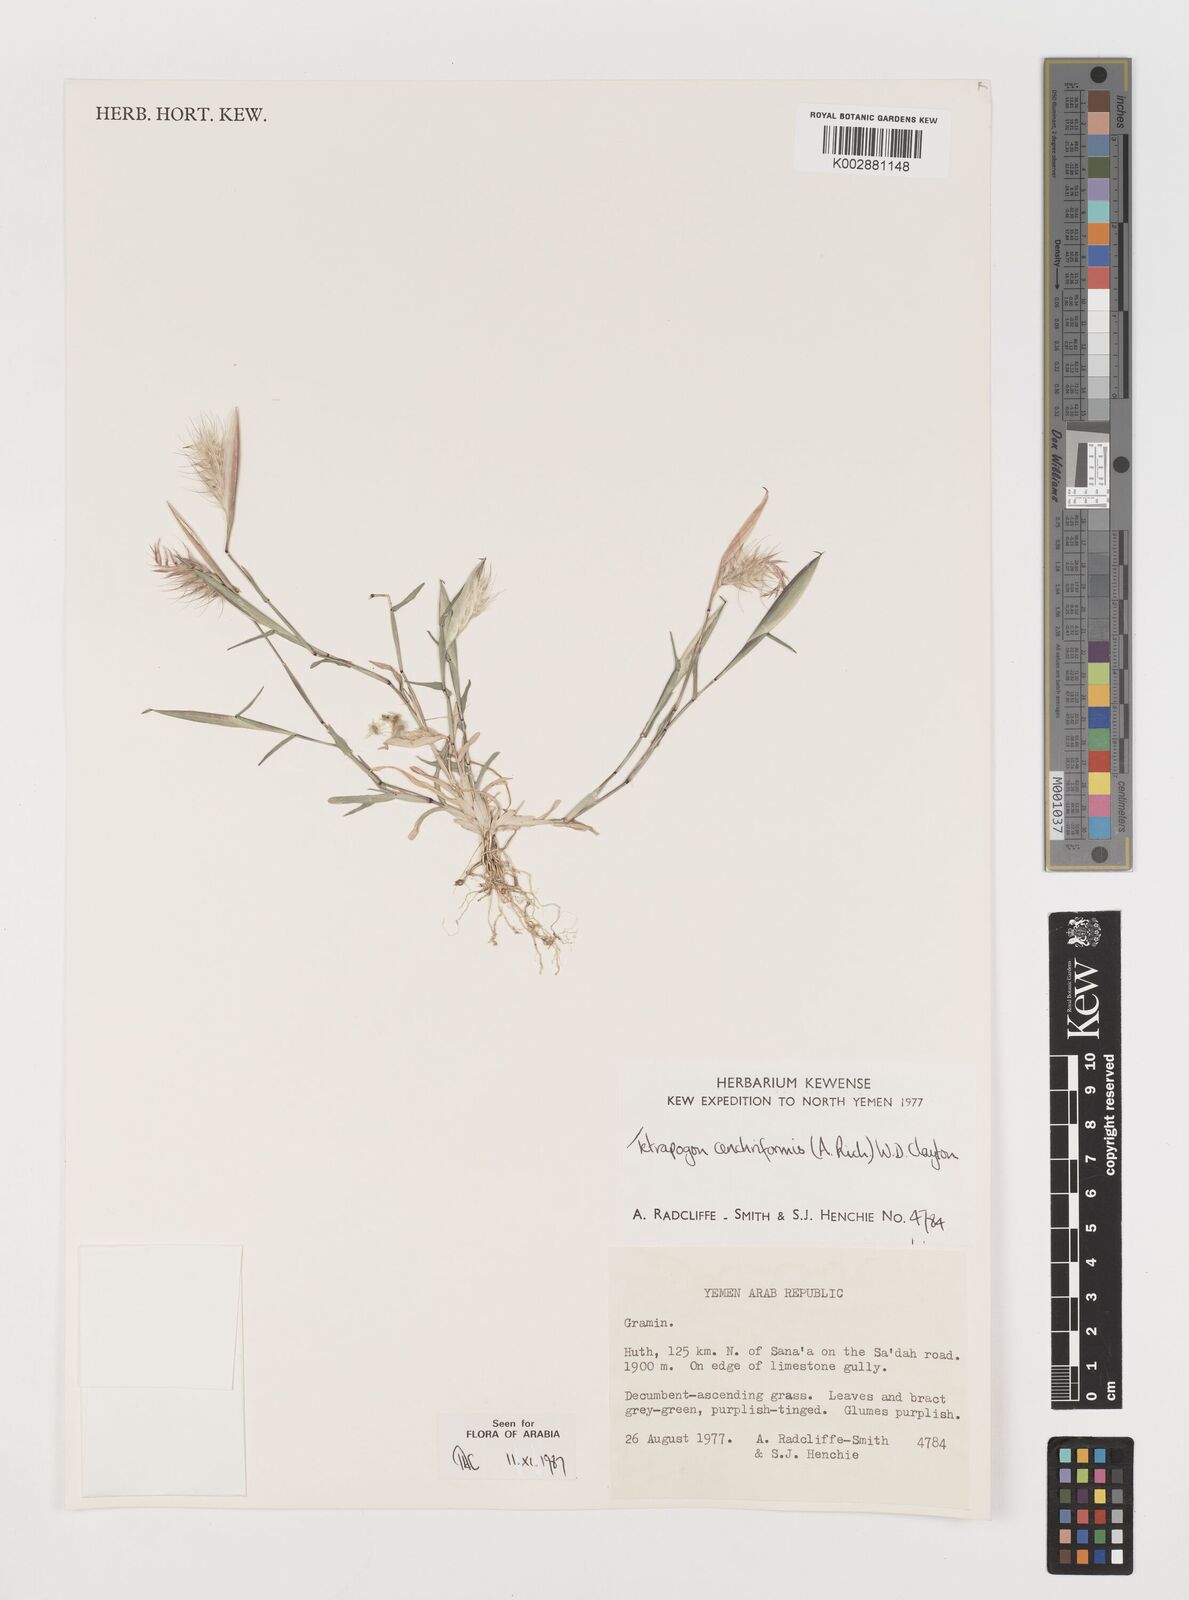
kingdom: Plantae
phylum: Tracheophyta
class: Liliopsida
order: Poales
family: Poaceae
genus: Tetrapogon
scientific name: Tetrapogon cenchriformis
